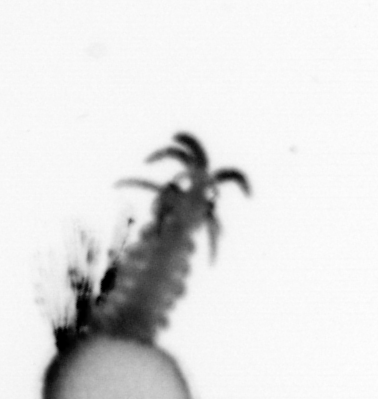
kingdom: Animalia
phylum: Annelida
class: Polychaeta
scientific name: Polychaeta
